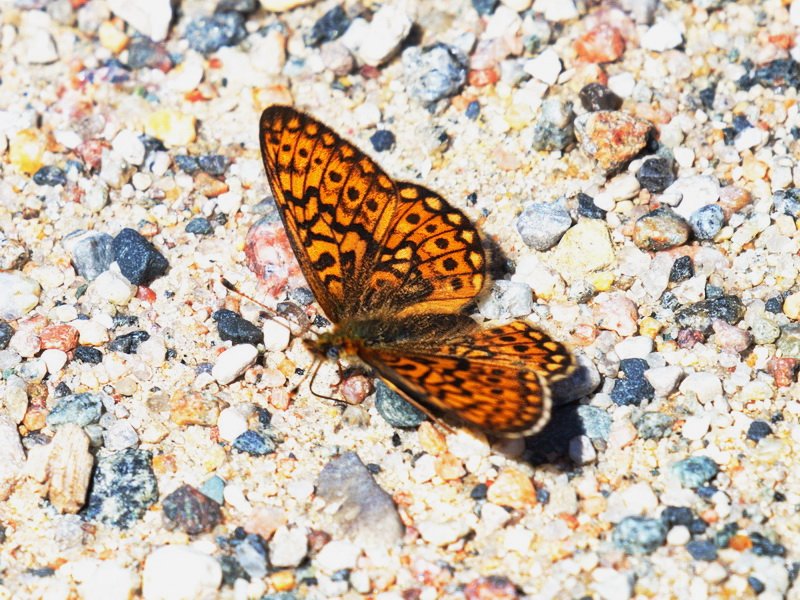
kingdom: Animalia
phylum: Arthropoda
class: Insecta
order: Lepidoptera
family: Nymphalidae
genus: Boloria
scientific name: Boloria eunomia
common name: Bog Fritillary
